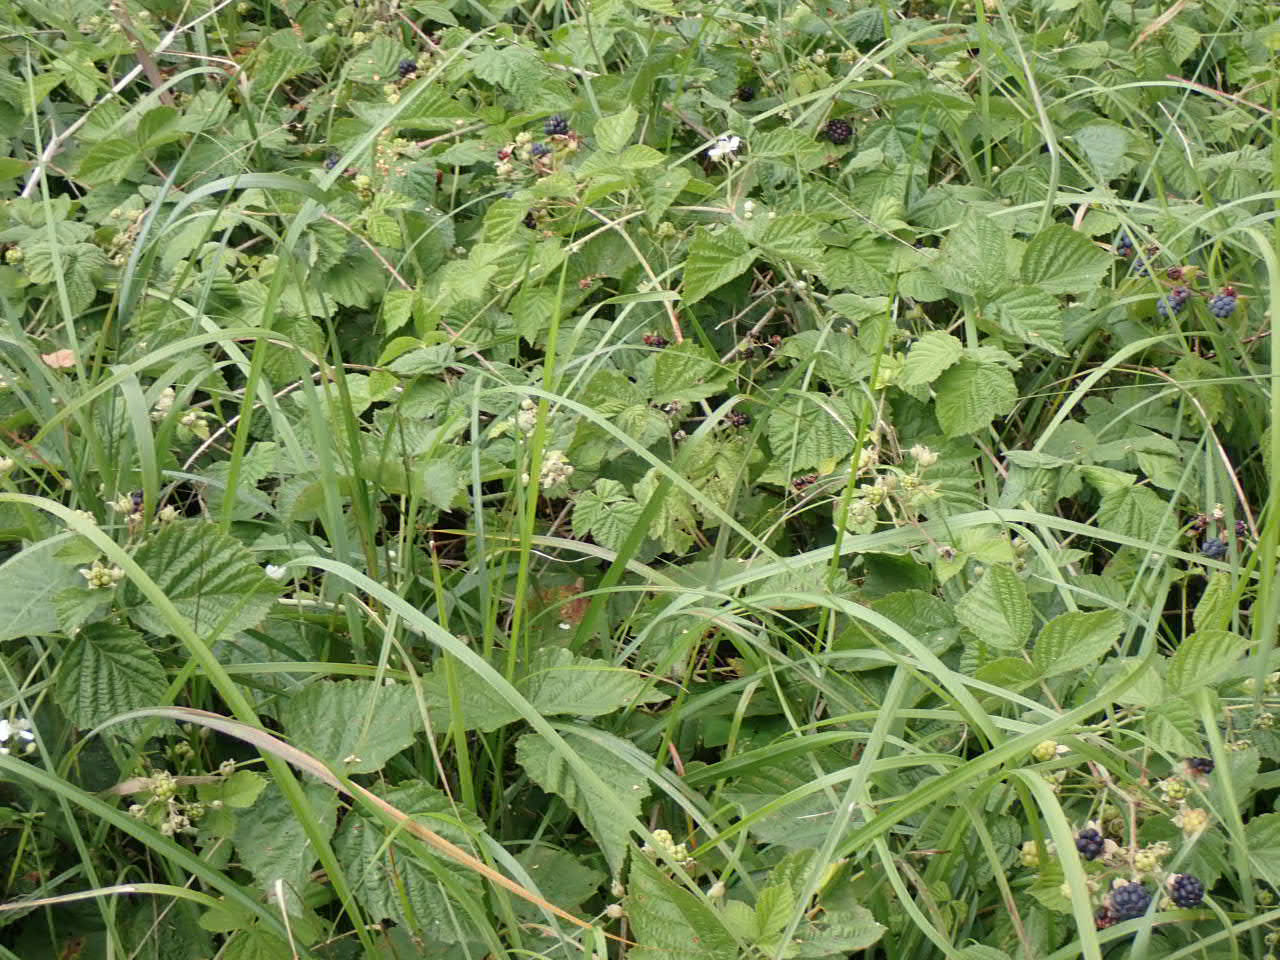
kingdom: Plantae
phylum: Tracheophyta
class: Magnoliopsida
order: Rosales
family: Rosaceae
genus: Rubus
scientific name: Rubus caesius
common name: Korbær
